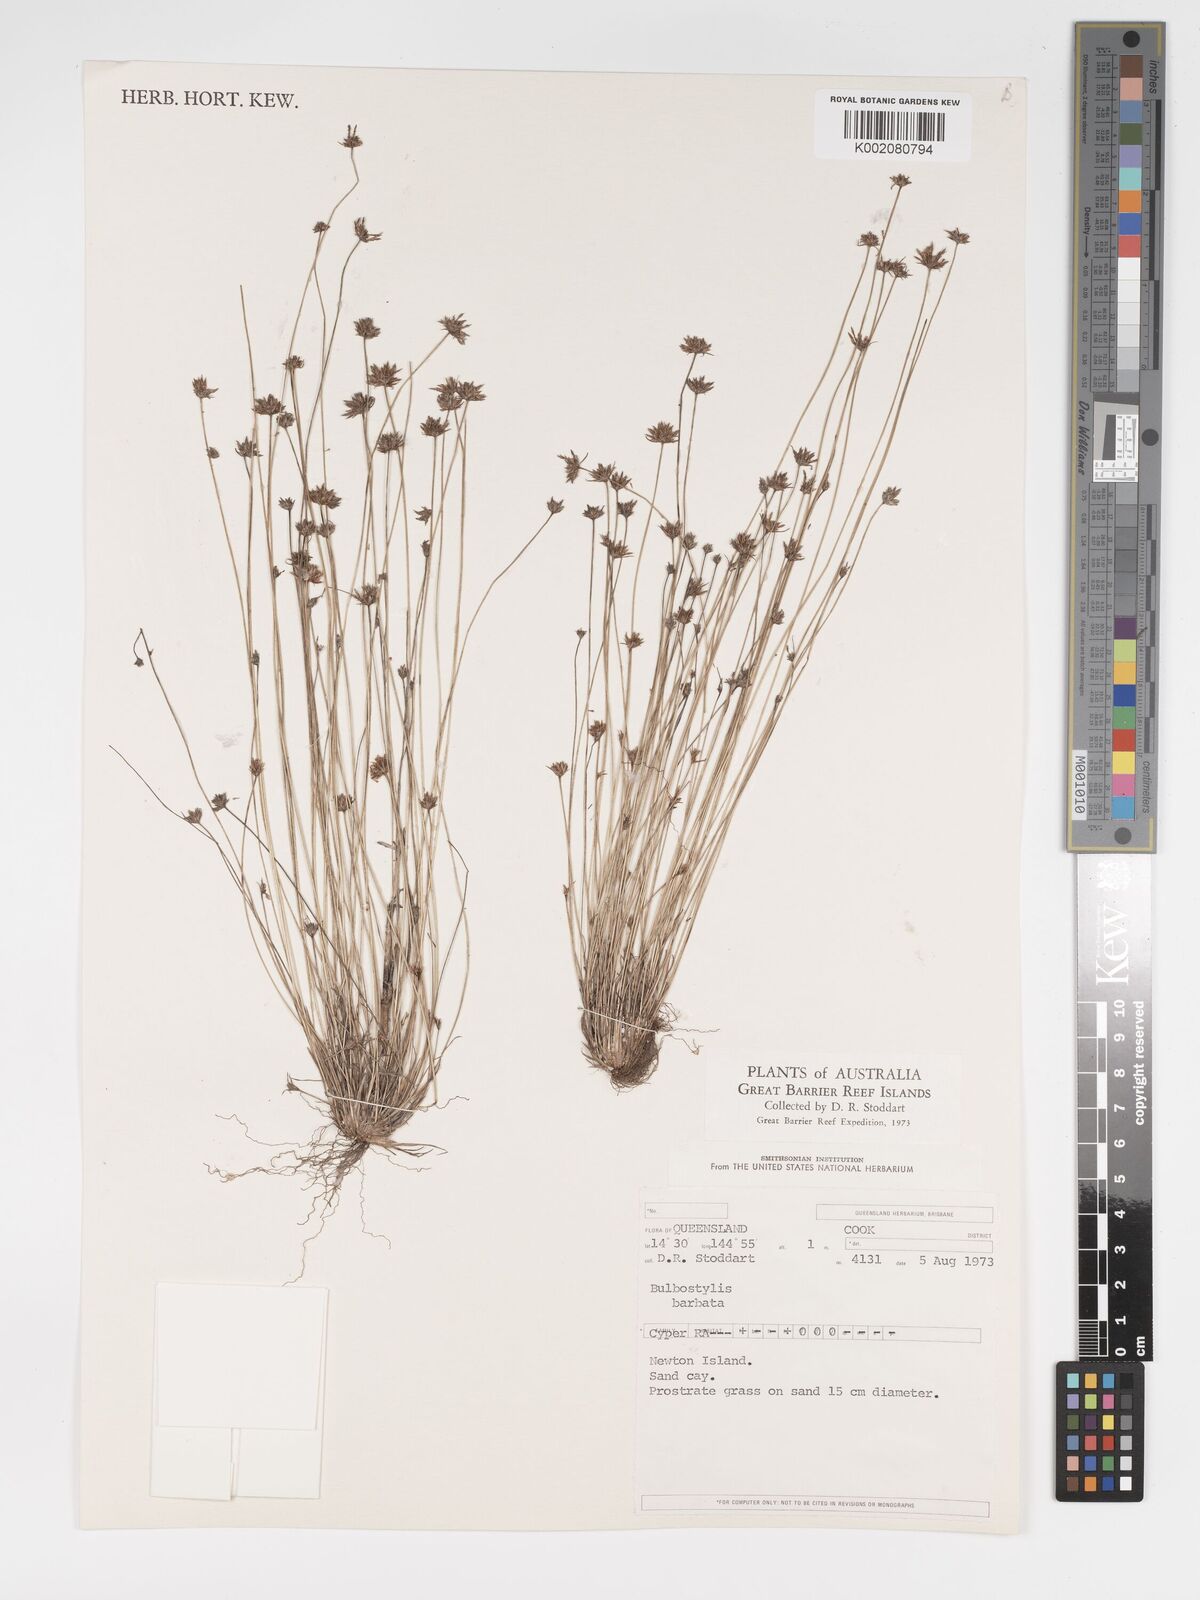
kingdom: Plantae
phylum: Tracheophyta
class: Liliopsida
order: Poales
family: Cyperaceae
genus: Bulbostylis
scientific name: Bulbostylis barbata
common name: Watergrass
